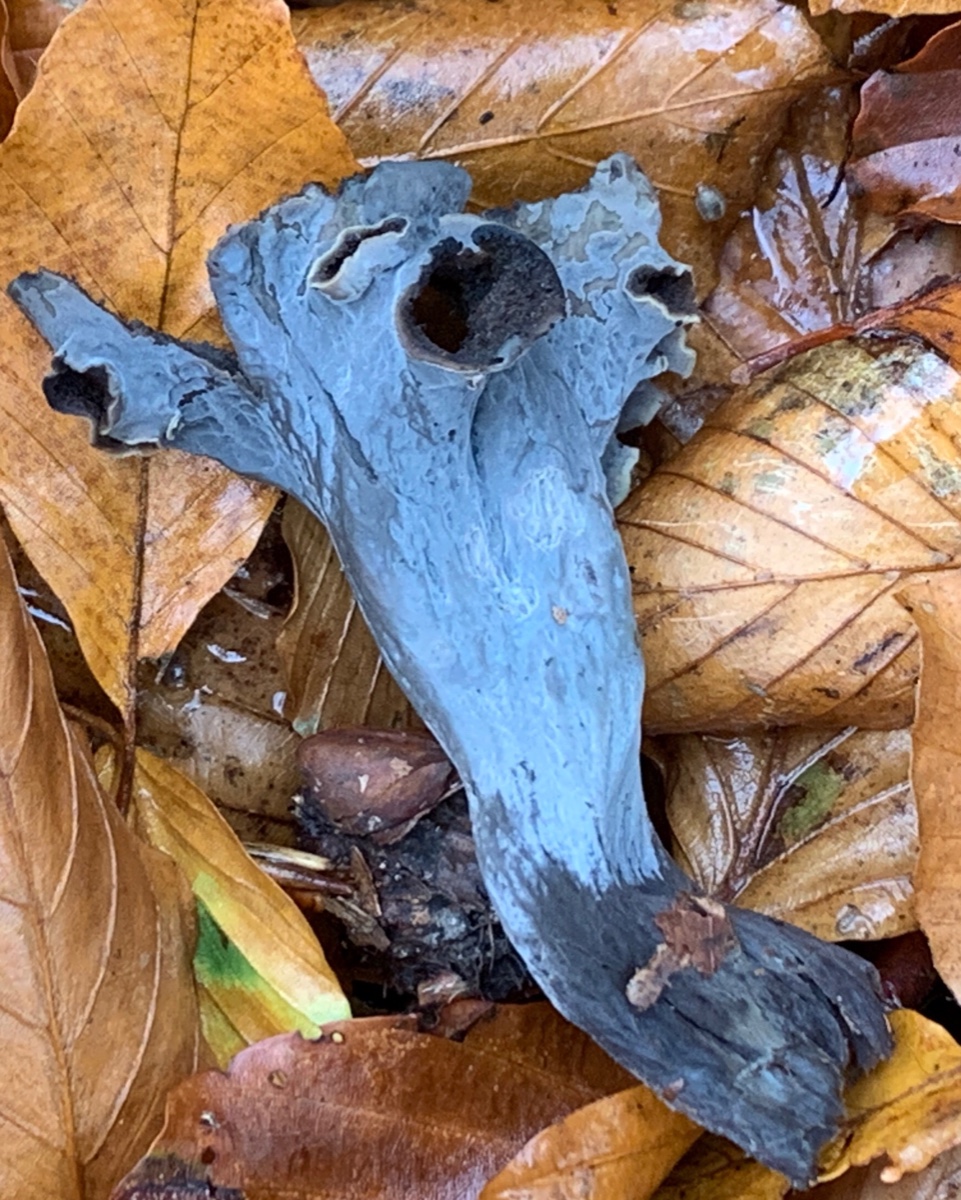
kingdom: Fungi
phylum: Basidiomycota
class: Agaricomycetes
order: Cantharellales
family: Hydnaceae
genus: Craterellus
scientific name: Craterellus cornucopioides
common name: trompetsvamp
